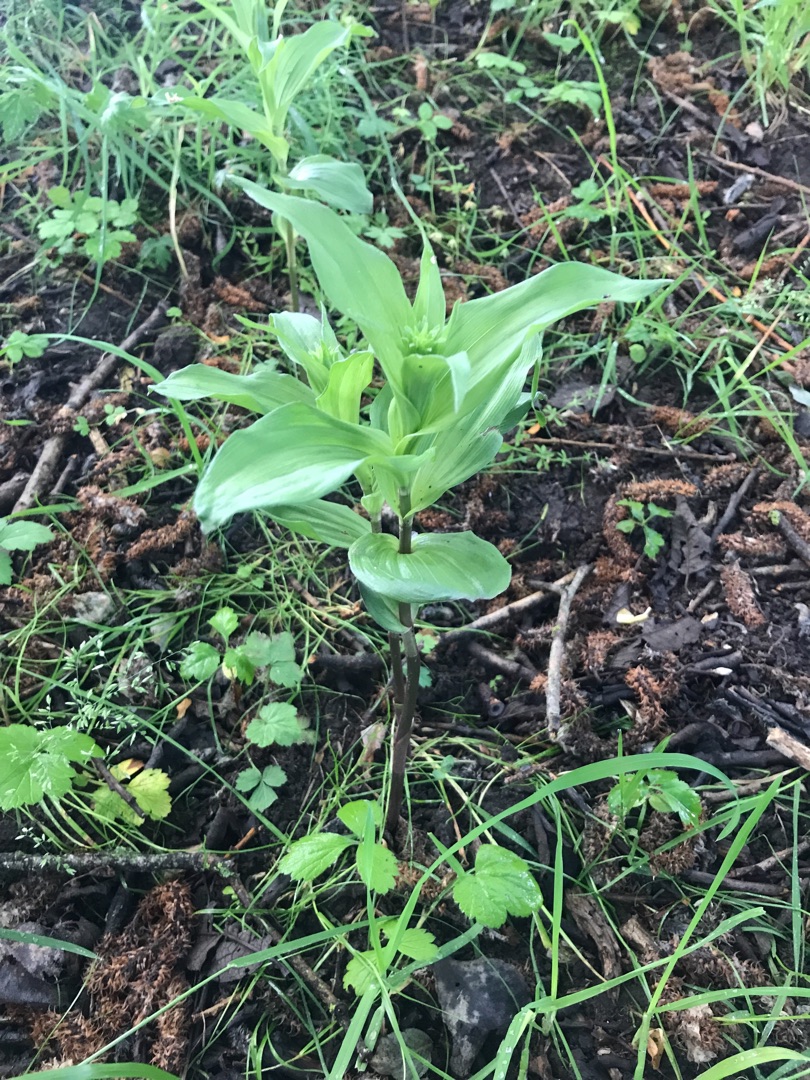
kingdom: Plantae
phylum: Tracheophyta
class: Liliopsida
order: Asparagales
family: Orchidaceae
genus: Epipactis
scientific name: Epipactis helleborine
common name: Skov-hullæbe
